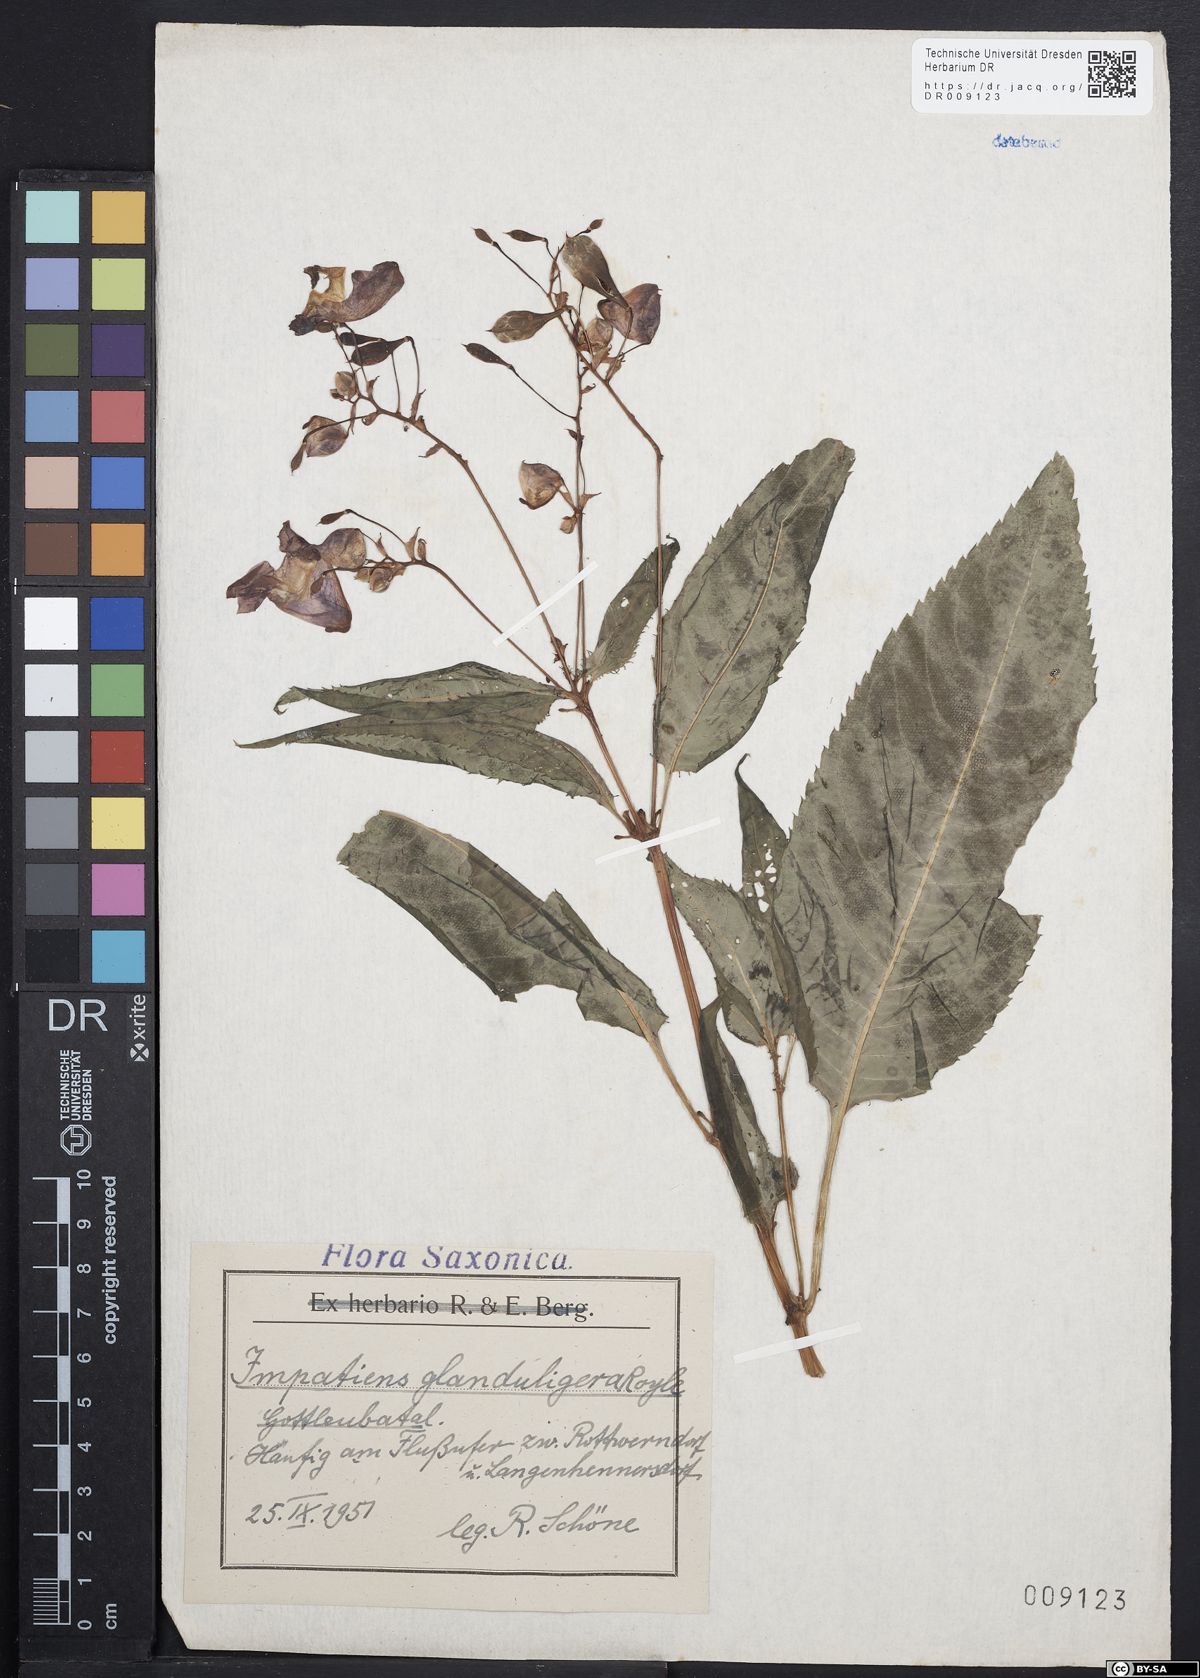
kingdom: Plantae
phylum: Tracheophyta
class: Magnoliopsida
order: Ericales
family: Balsaminaceae
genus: Impatiens
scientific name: Impatiens glandulifera
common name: Himalayan balsam
